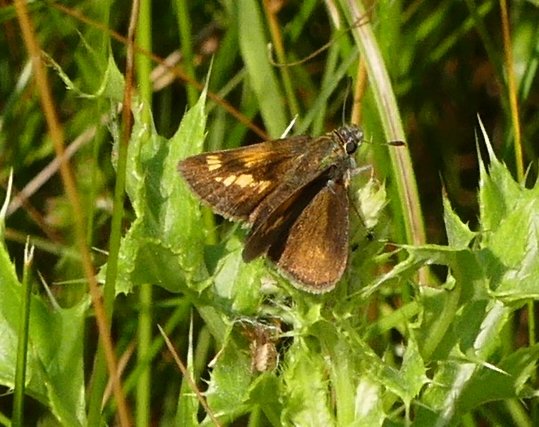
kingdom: Animalia
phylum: Arthropoda
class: Insecta
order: Lepidoptera
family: Hesperiidae
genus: Polites
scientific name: Polites
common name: Crossline Skipper
